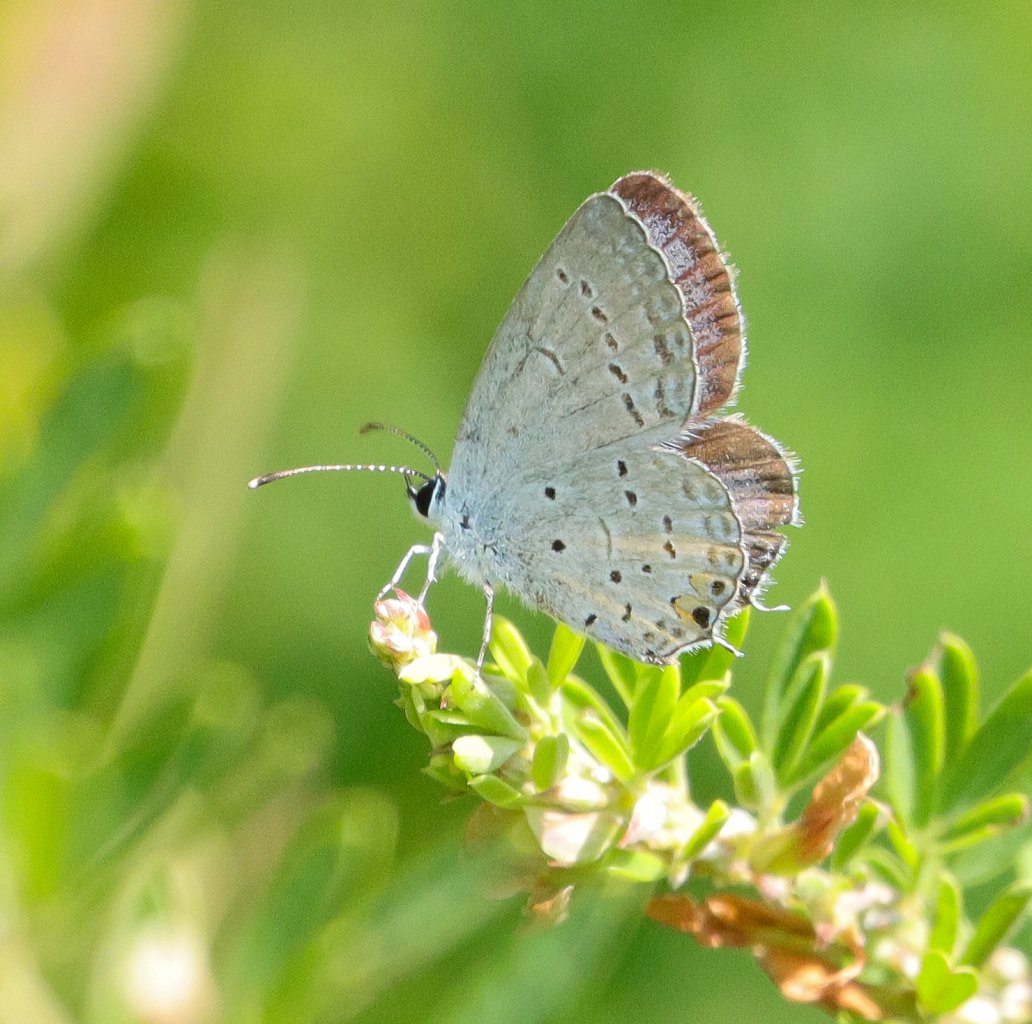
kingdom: Animalia
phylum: Arthropoda
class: Insecta
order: Lepidoptera
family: Lycaenidae
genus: Elkalyce
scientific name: Elkalyce comyntas
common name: Eastern Tailed-Blue
